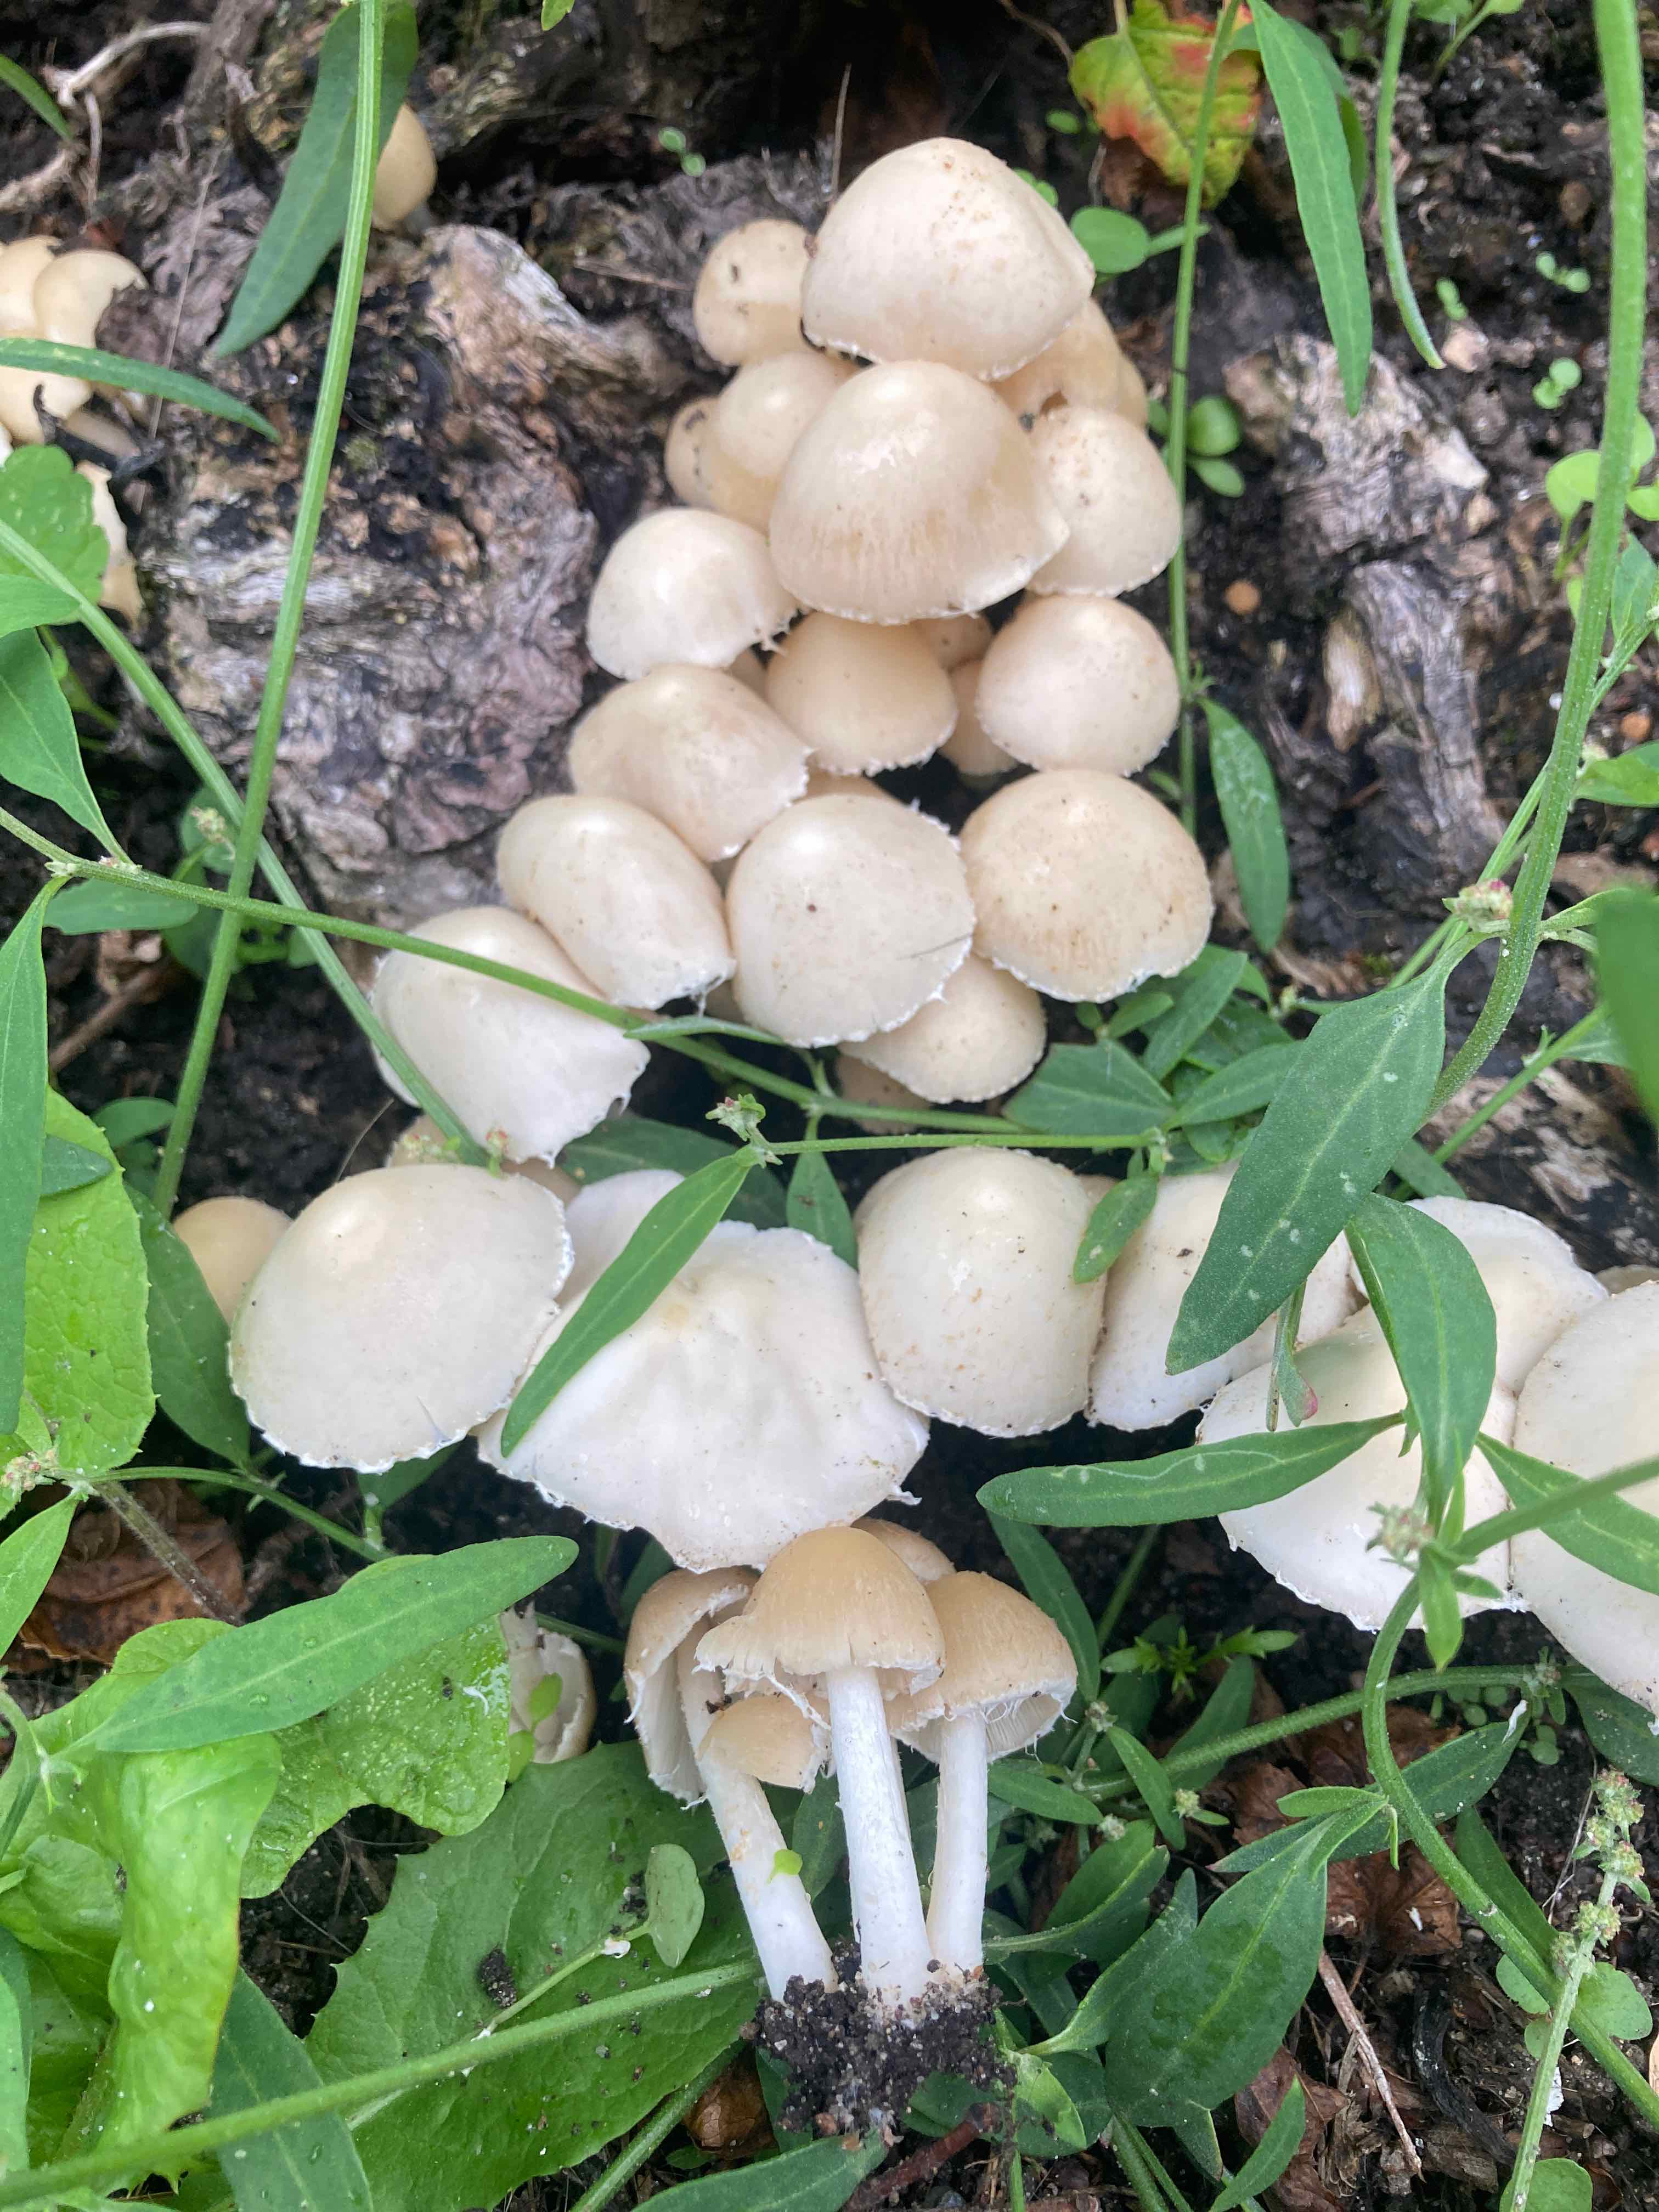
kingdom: Fungi
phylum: Basidiomycota
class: Agaricomycetes
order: Agaricales
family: Psathyrellaceae
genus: Candolleomyces
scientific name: Candolleomyces candolleanus
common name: Candolles mørkhat
